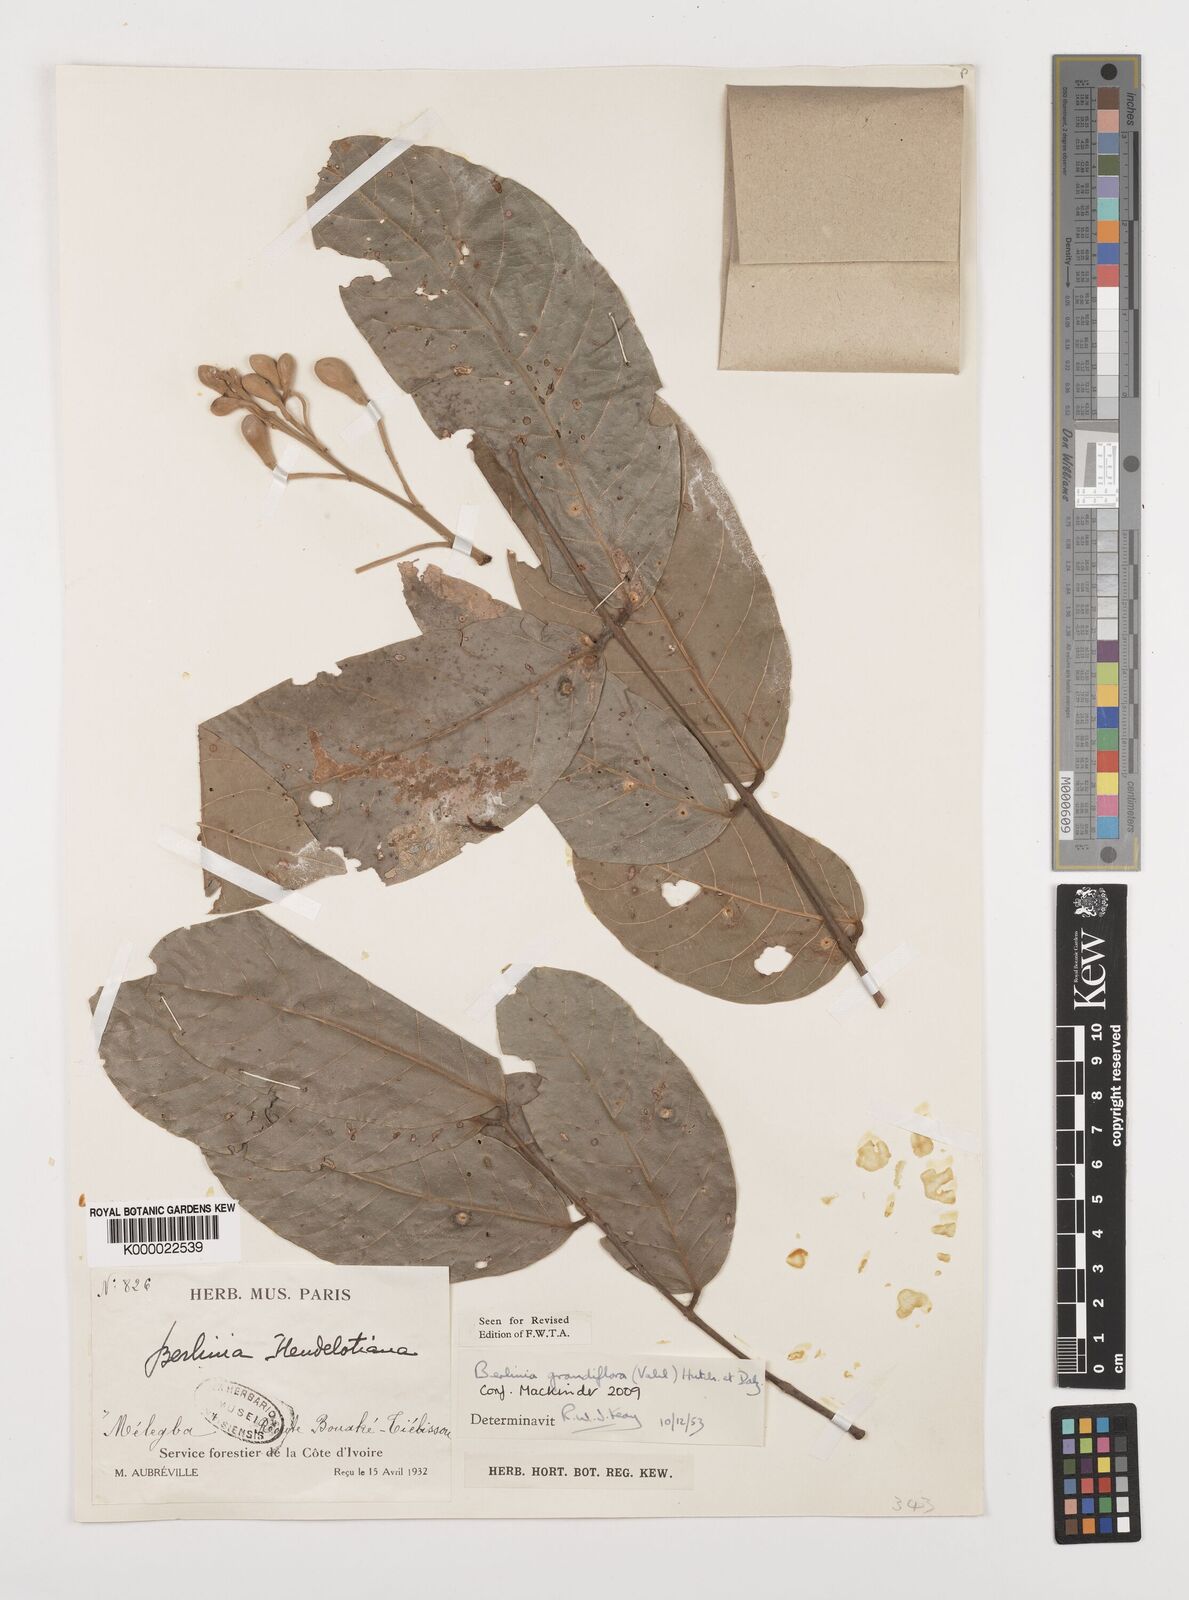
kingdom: Plantae
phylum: Tracheophyta
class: Magnoliopsida
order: Fabales
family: Fabaceae
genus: Berlinia
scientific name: Berlinia grandiflora
